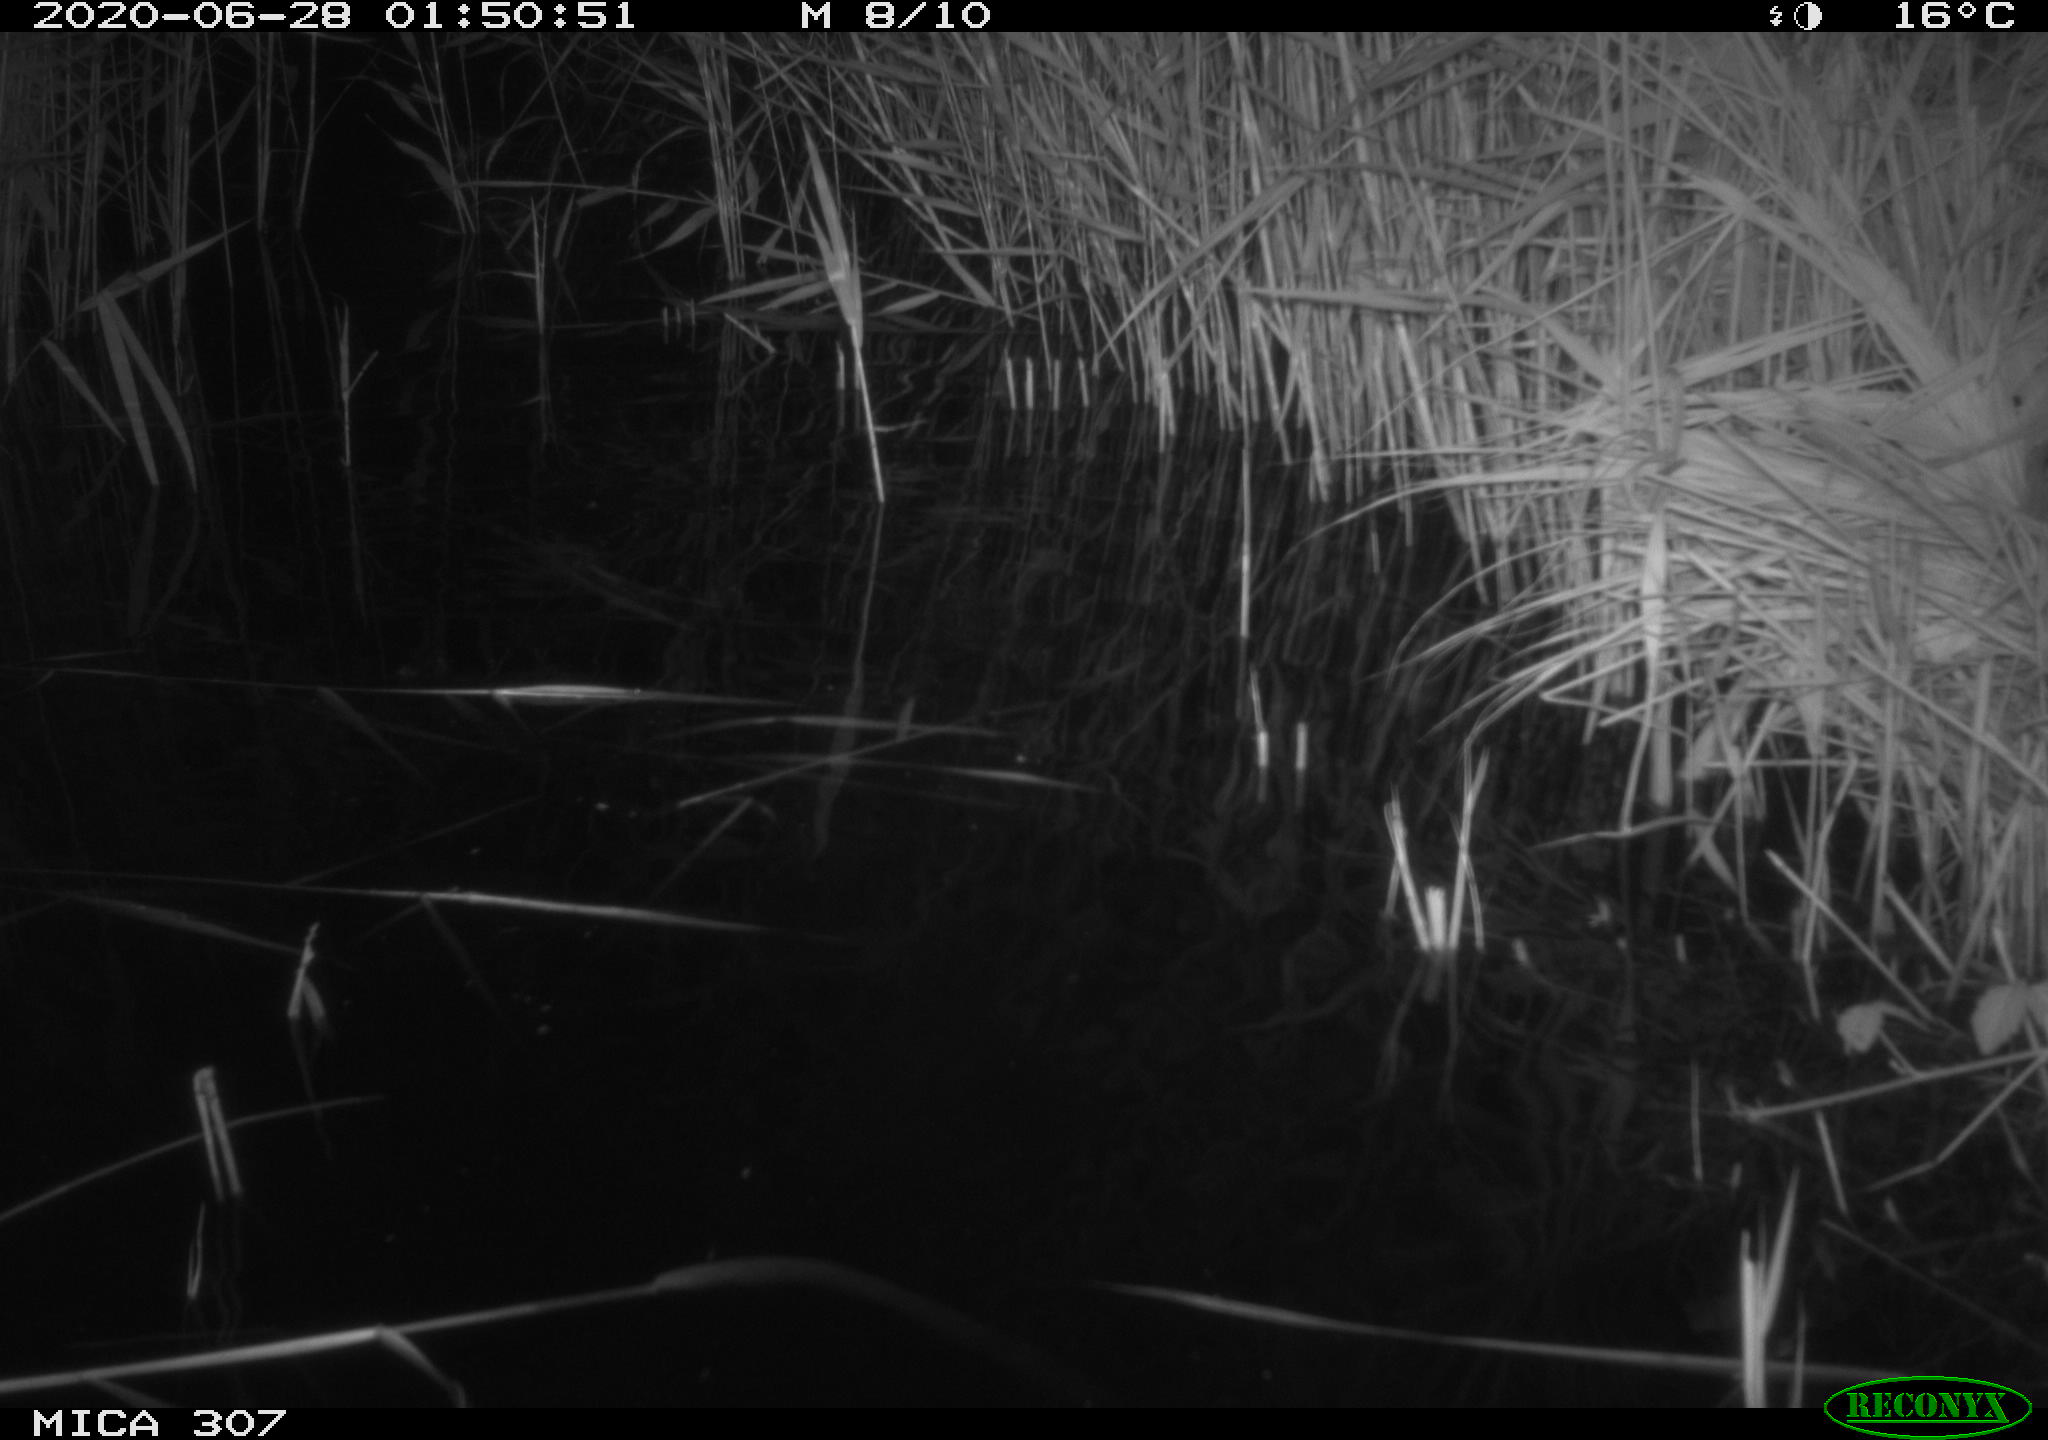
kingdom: Animalia
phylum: Chordata
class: Mammalia
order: Rodentia
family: Muridae
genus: Rattus
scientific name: Rattus norvegicus
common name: Brown rat
